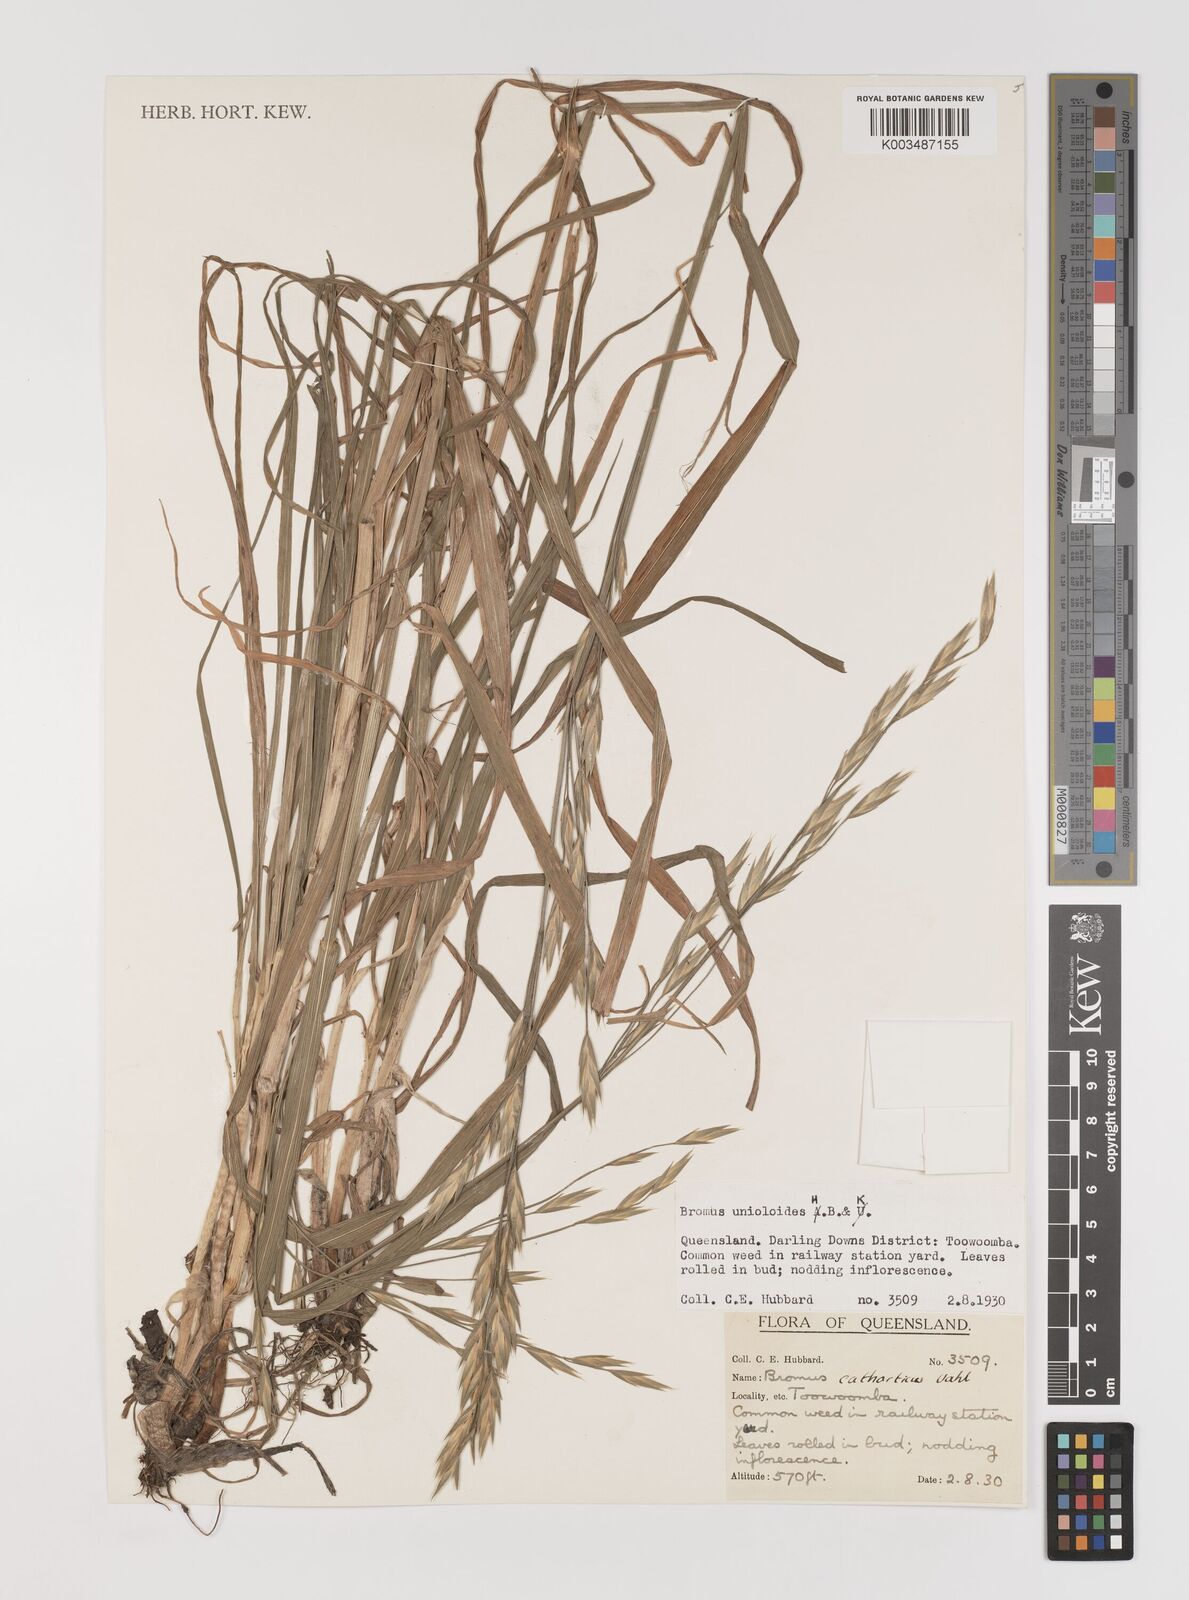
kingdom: Plantae
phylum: Tracheophyta
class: Liliopsida
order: Poales
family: Poaceae
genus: Bromus
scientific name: Bromus catharticus
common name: Rescuegrass
